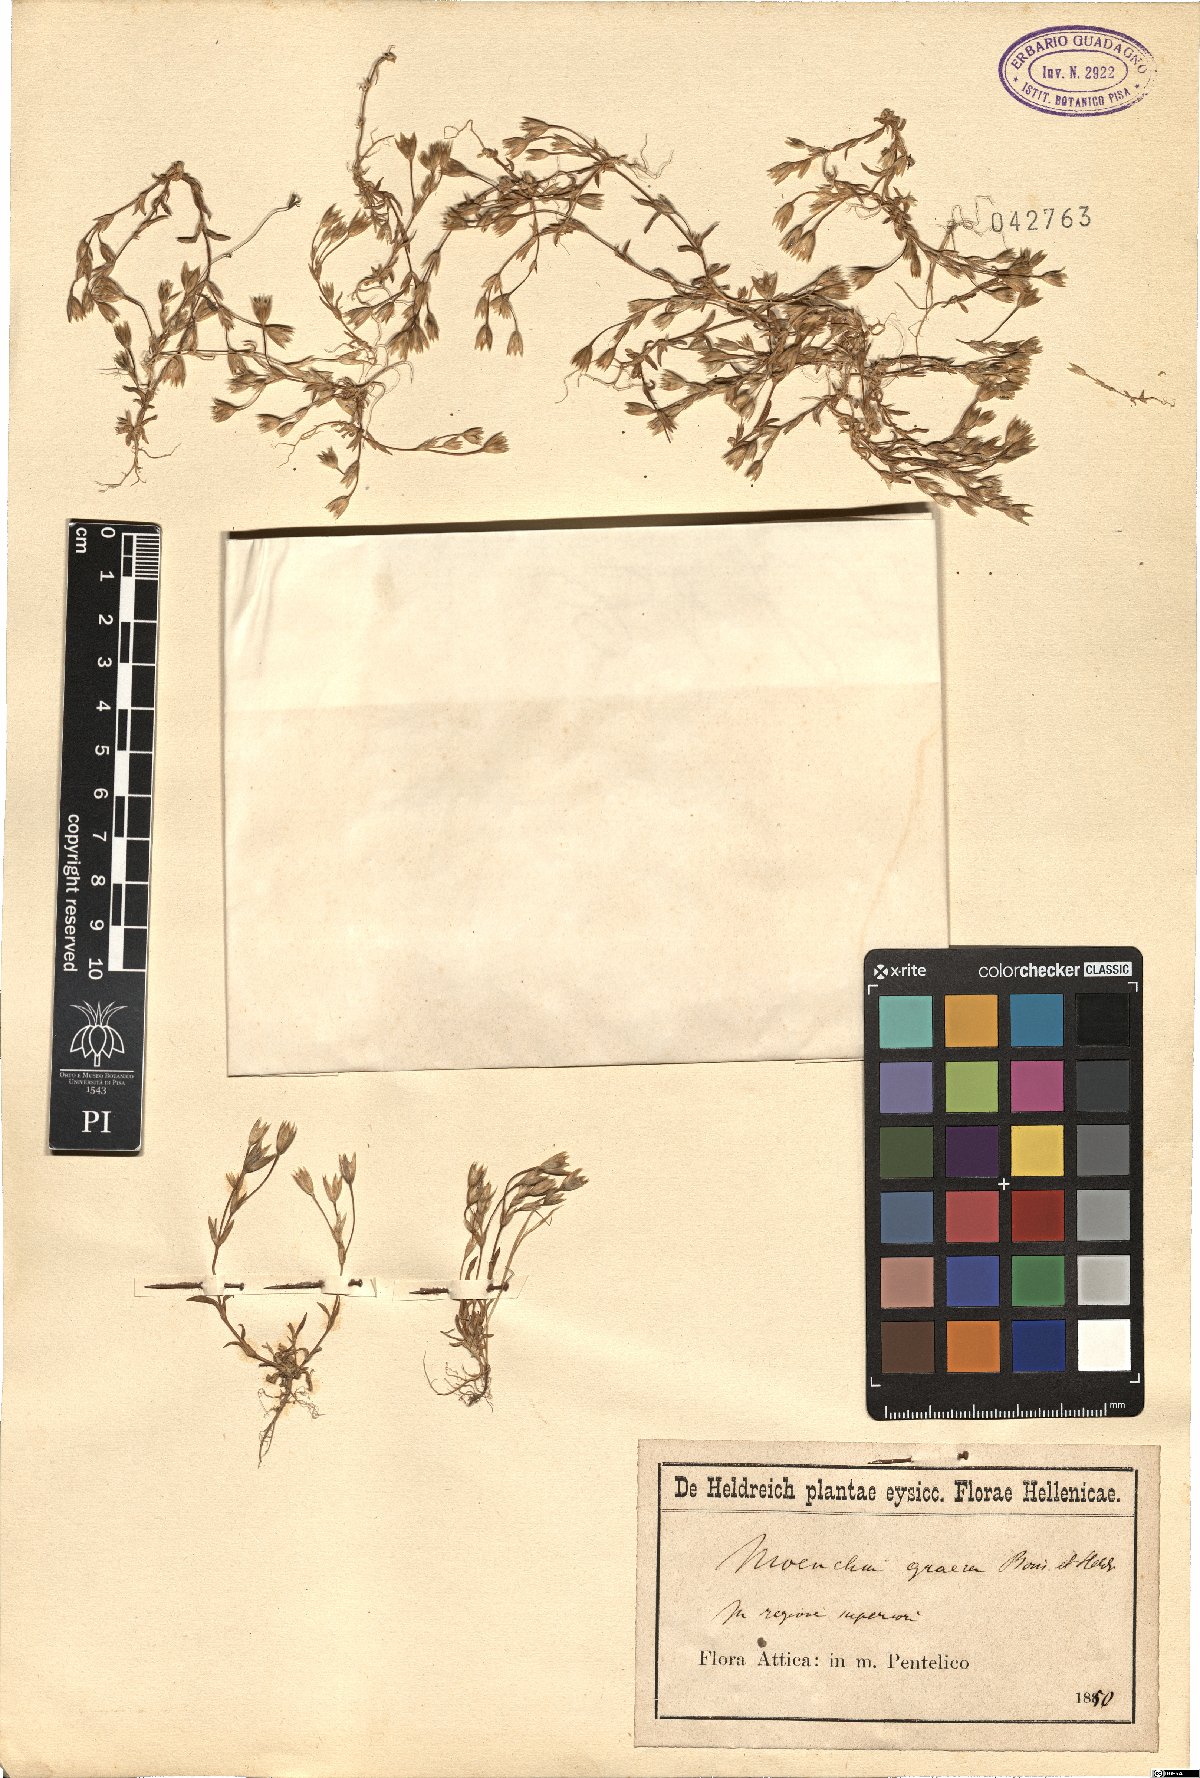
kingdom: Plantae
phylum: Tracheophyta
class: Magnoliopsida
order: Caryophyllales
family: Caryophyllaceae
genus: Moenchia
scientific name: Moenchia graeca
